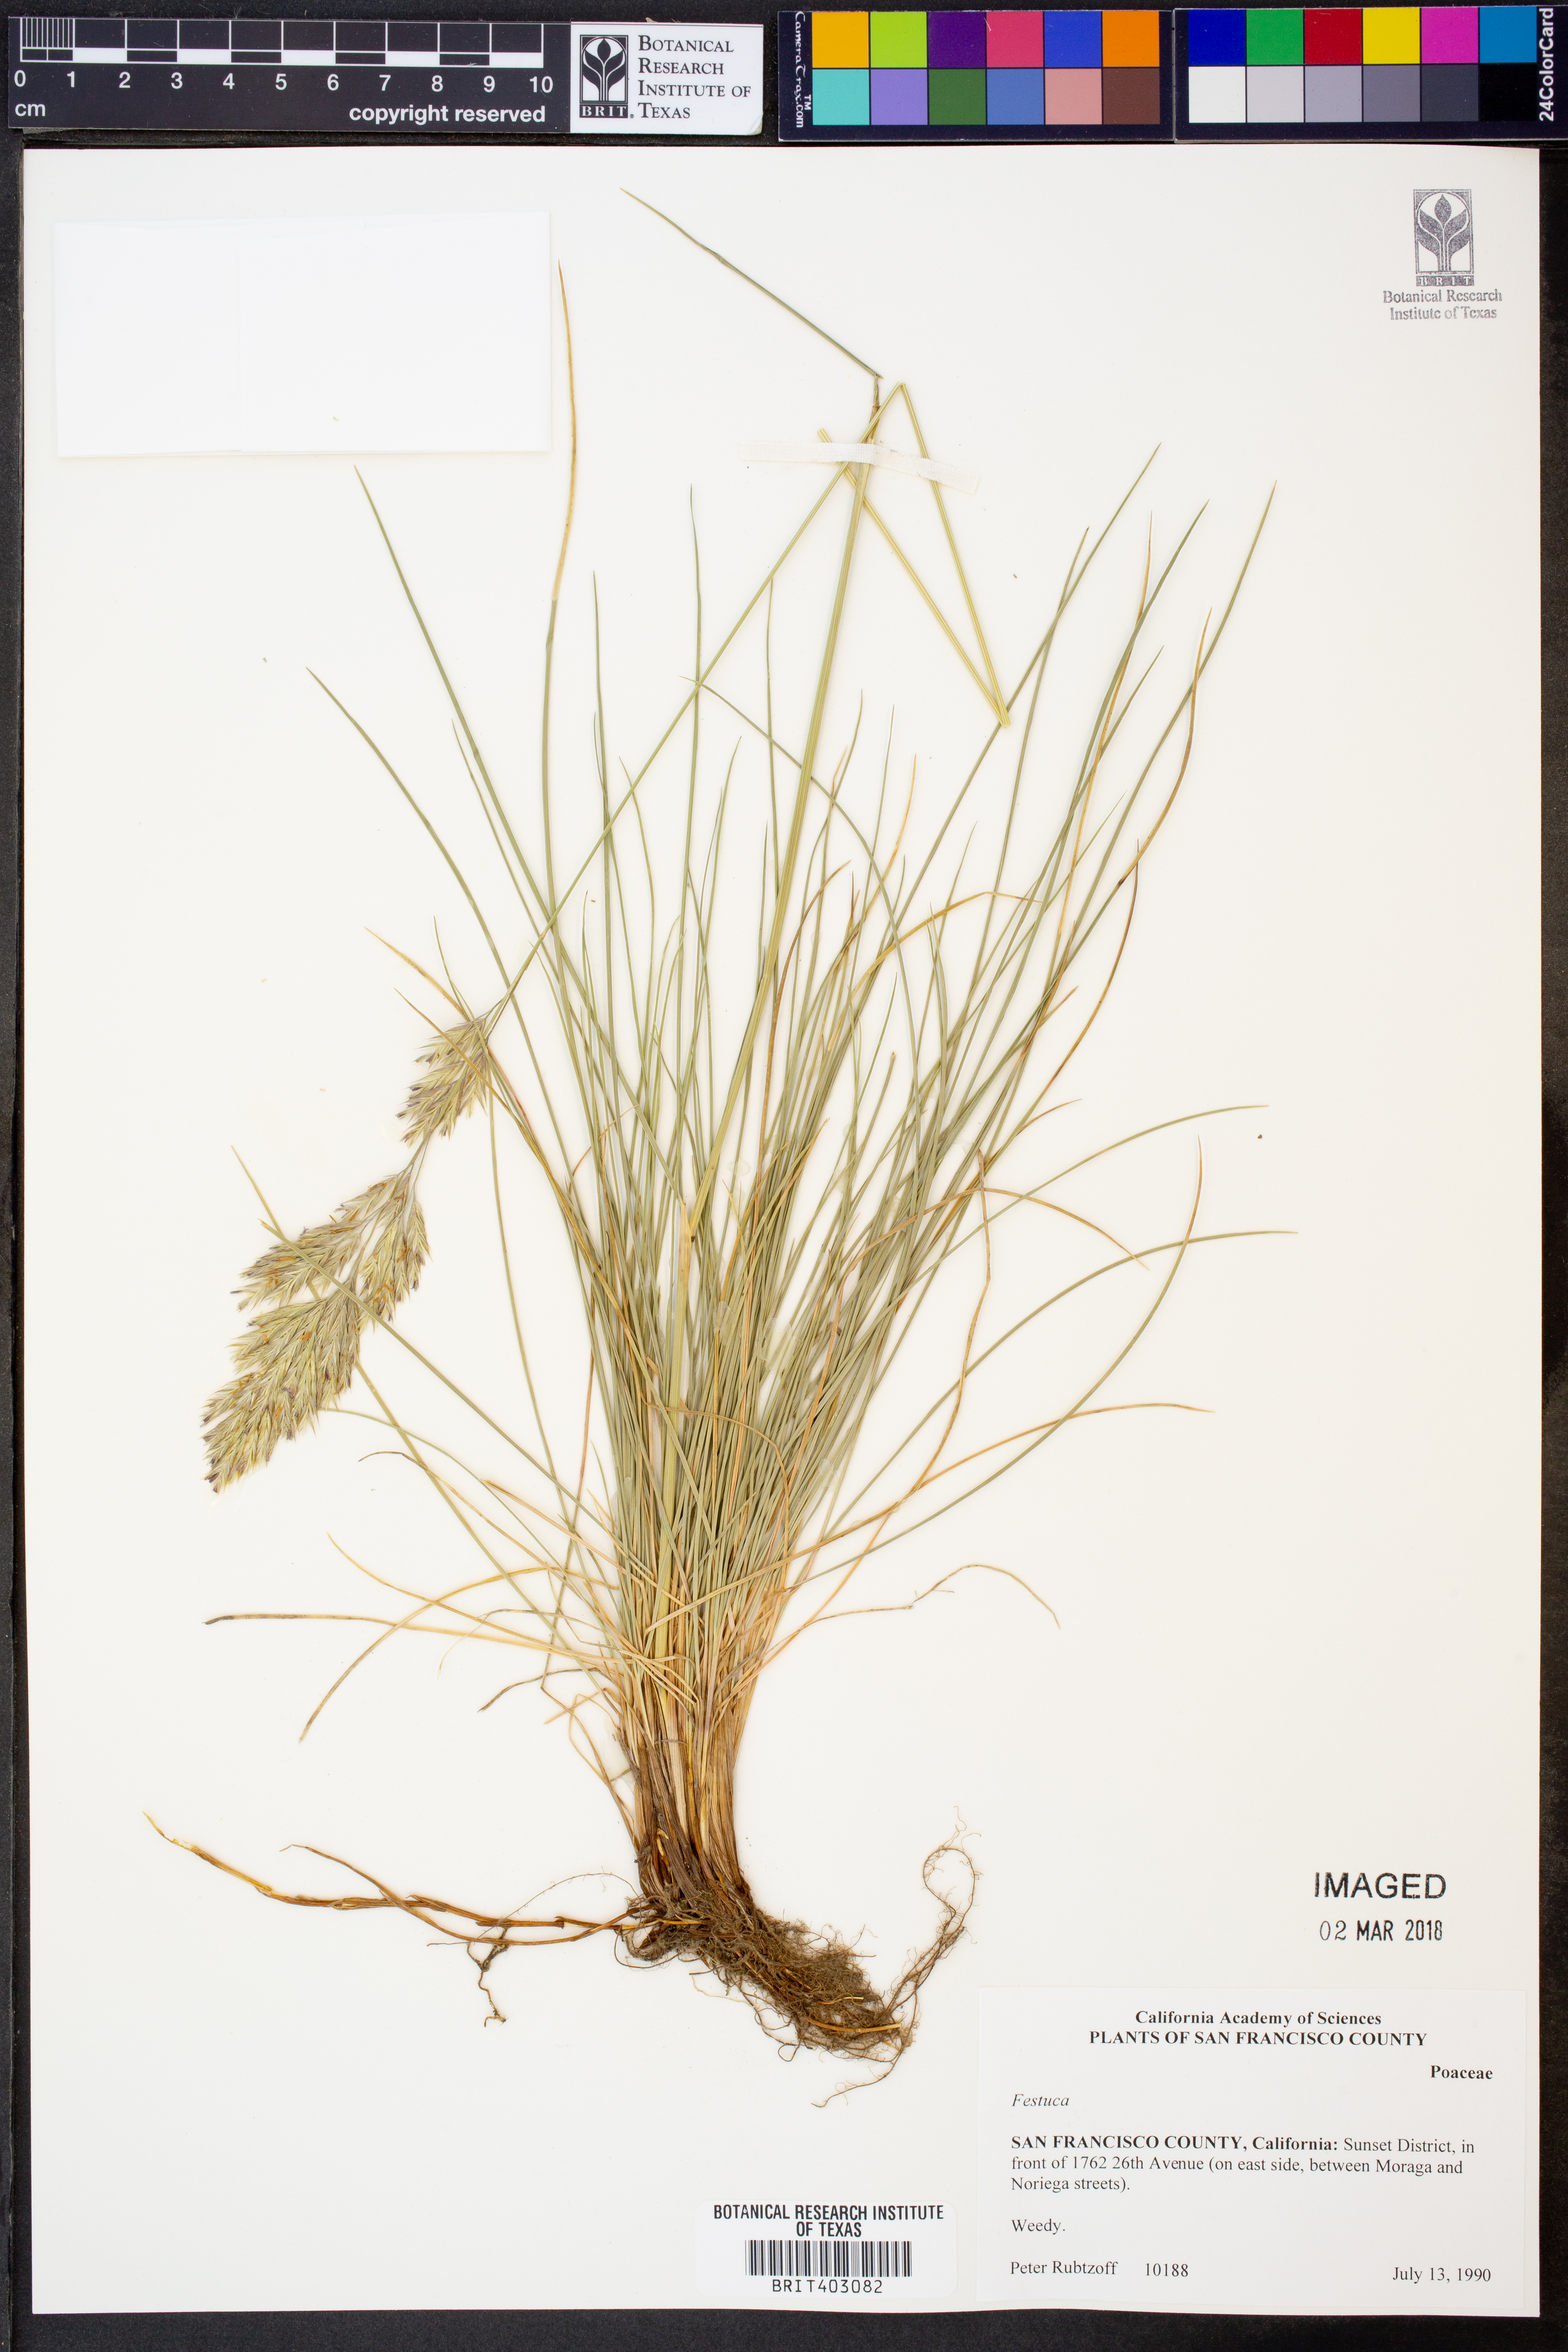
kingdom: Plantae
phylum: Tracheophyta
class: Liliopsida
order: Poales
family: Poaceae
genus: Festuca
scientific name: Festuca
